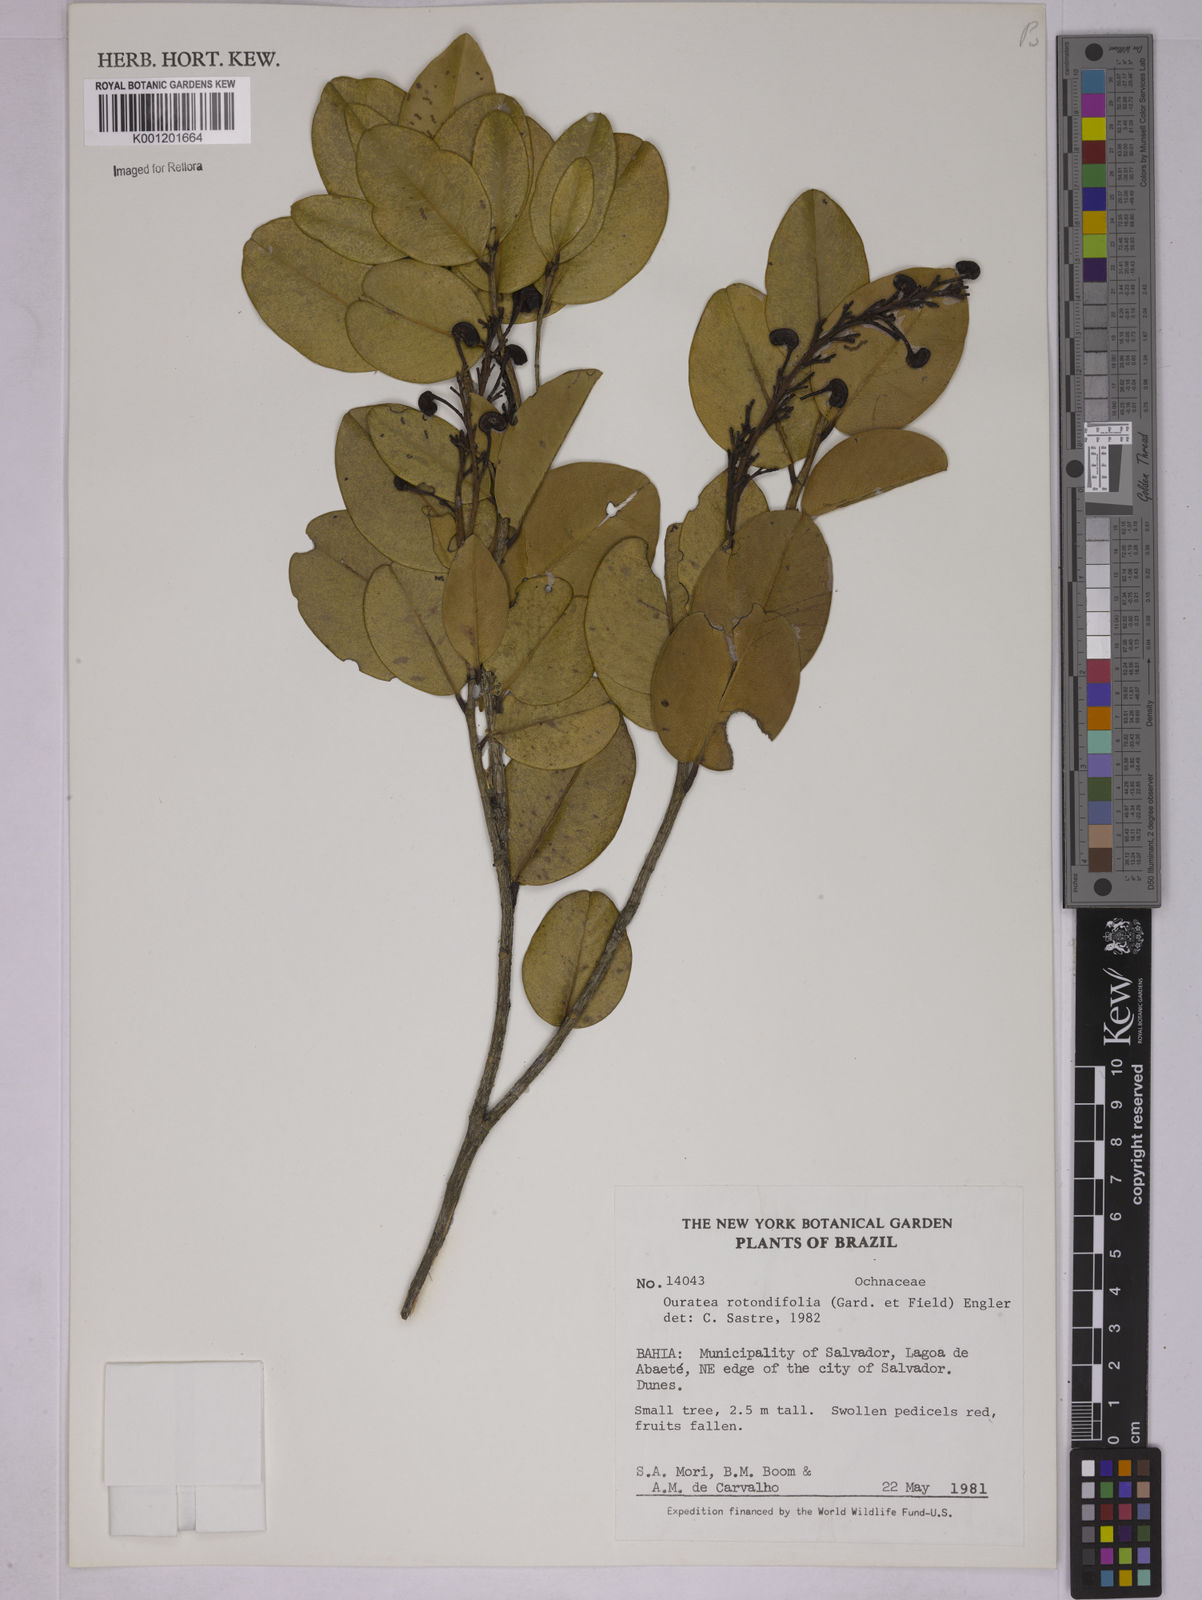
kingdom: Plantae
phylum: Tracheophyta
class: Magnoliopsida
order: Malpighiales
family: Ochnaceae
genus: Ouratea
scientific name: Ouratea rotundifolia
